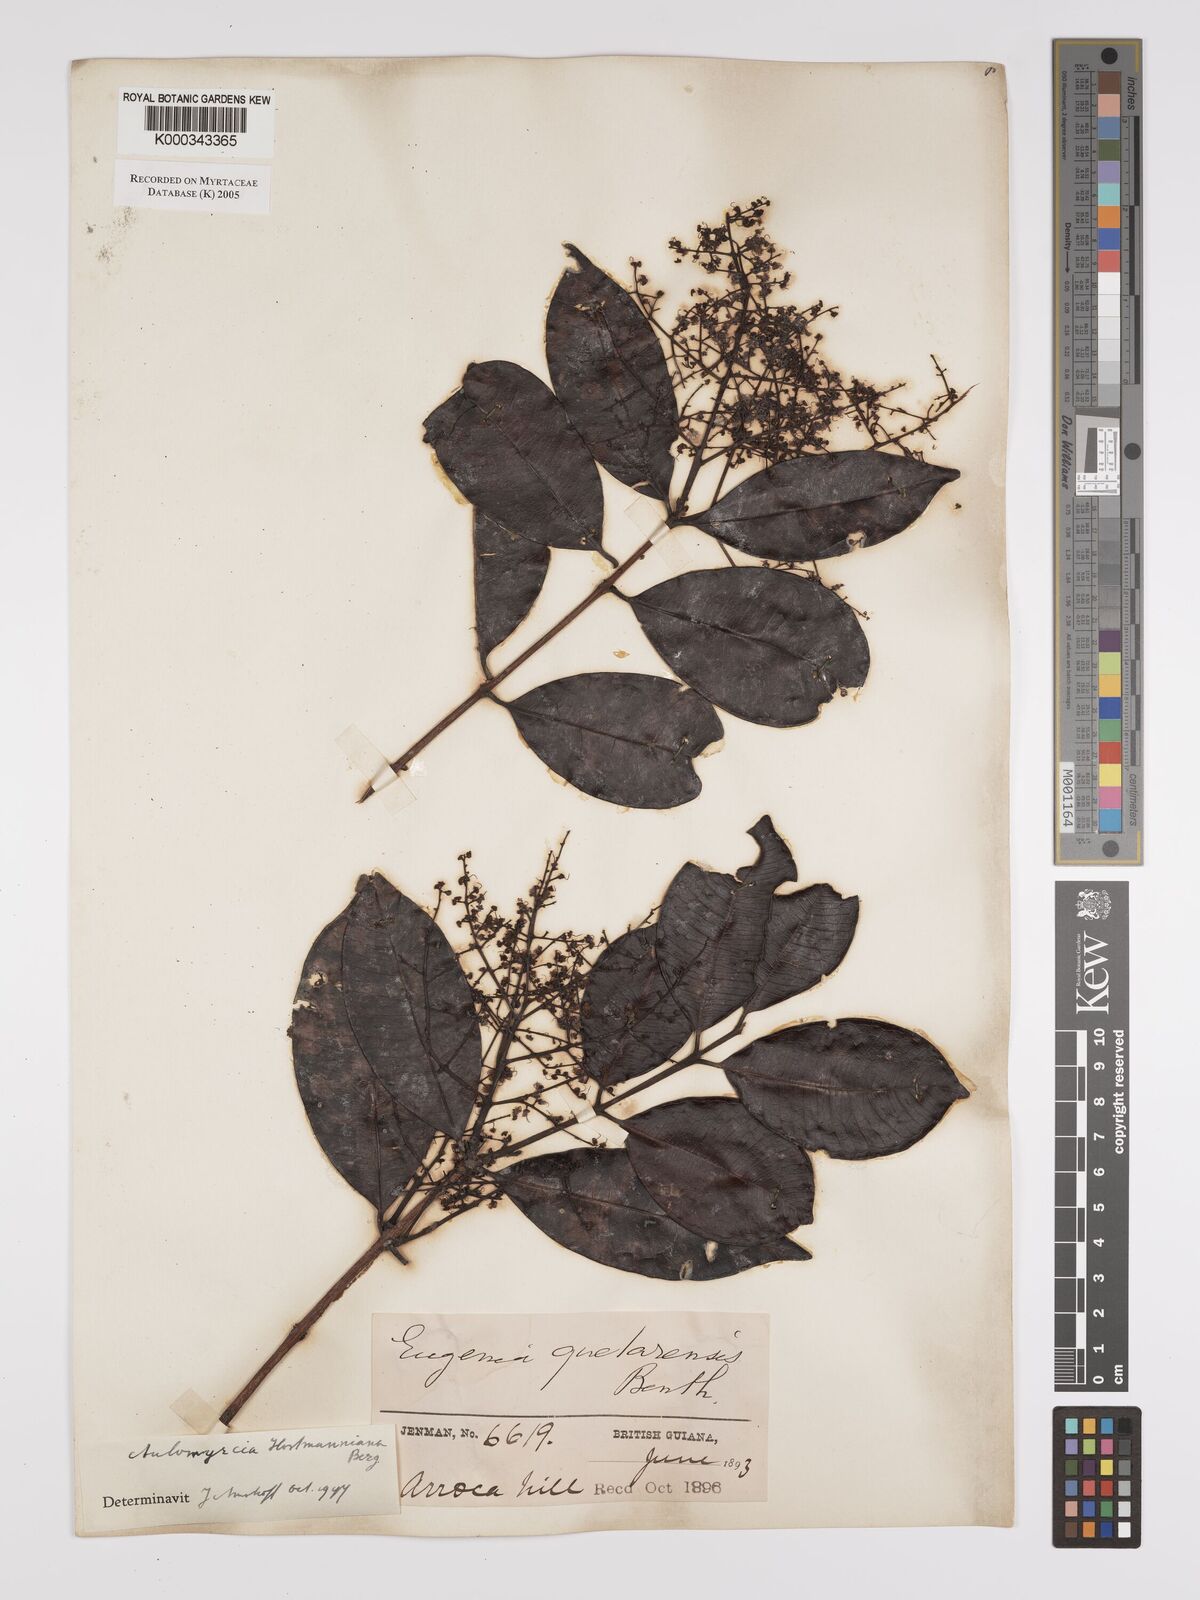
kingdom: Plantae
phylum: Tracheophyta
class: Magnoliopsida
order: Myrtales
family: Myrtaceae
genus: Myrcia
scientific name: Myrcia amazonica
